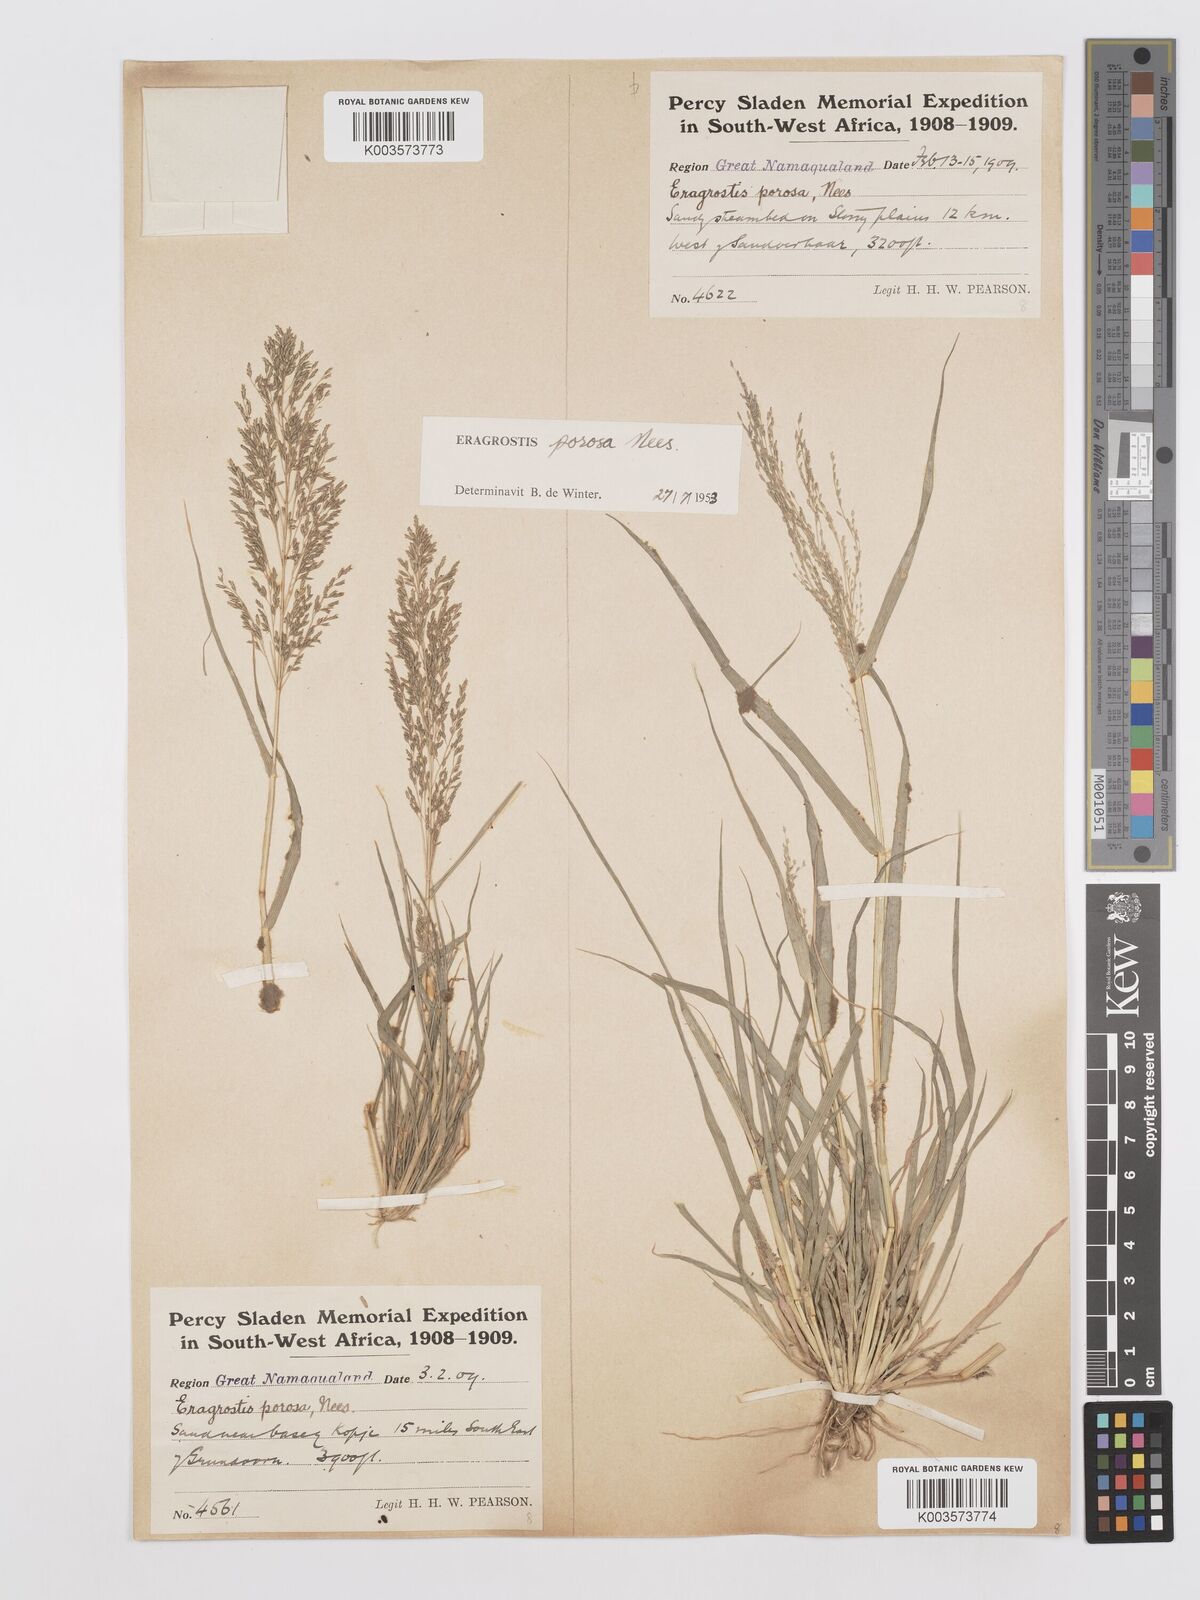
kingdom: Plantae
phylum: Tracheophyta
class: Liliopsida
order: Poales
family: Poaceae
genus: Eragrostis
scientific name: Eragrostis porosa
